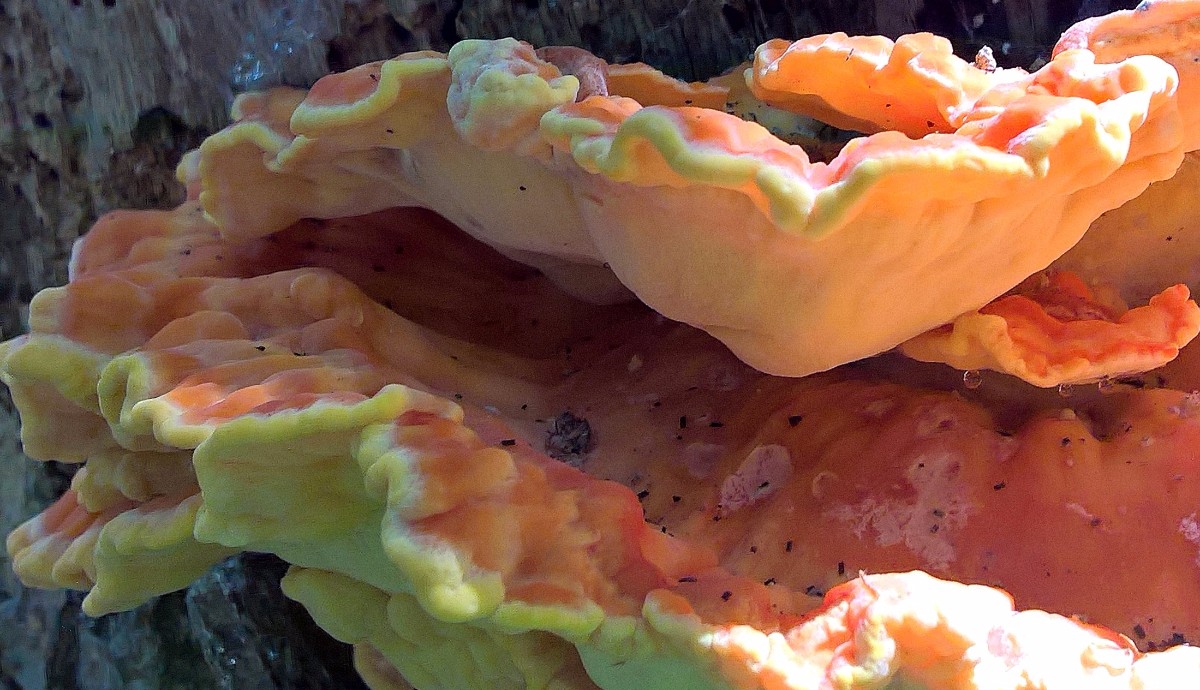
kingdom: Fungi
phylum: Basidiomycota
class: Agaricomycetes
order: Polyporales
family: Laetiporaceae
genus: Laetiporus
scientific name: Laetiporus sulphureus
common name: svovlporesvamp
